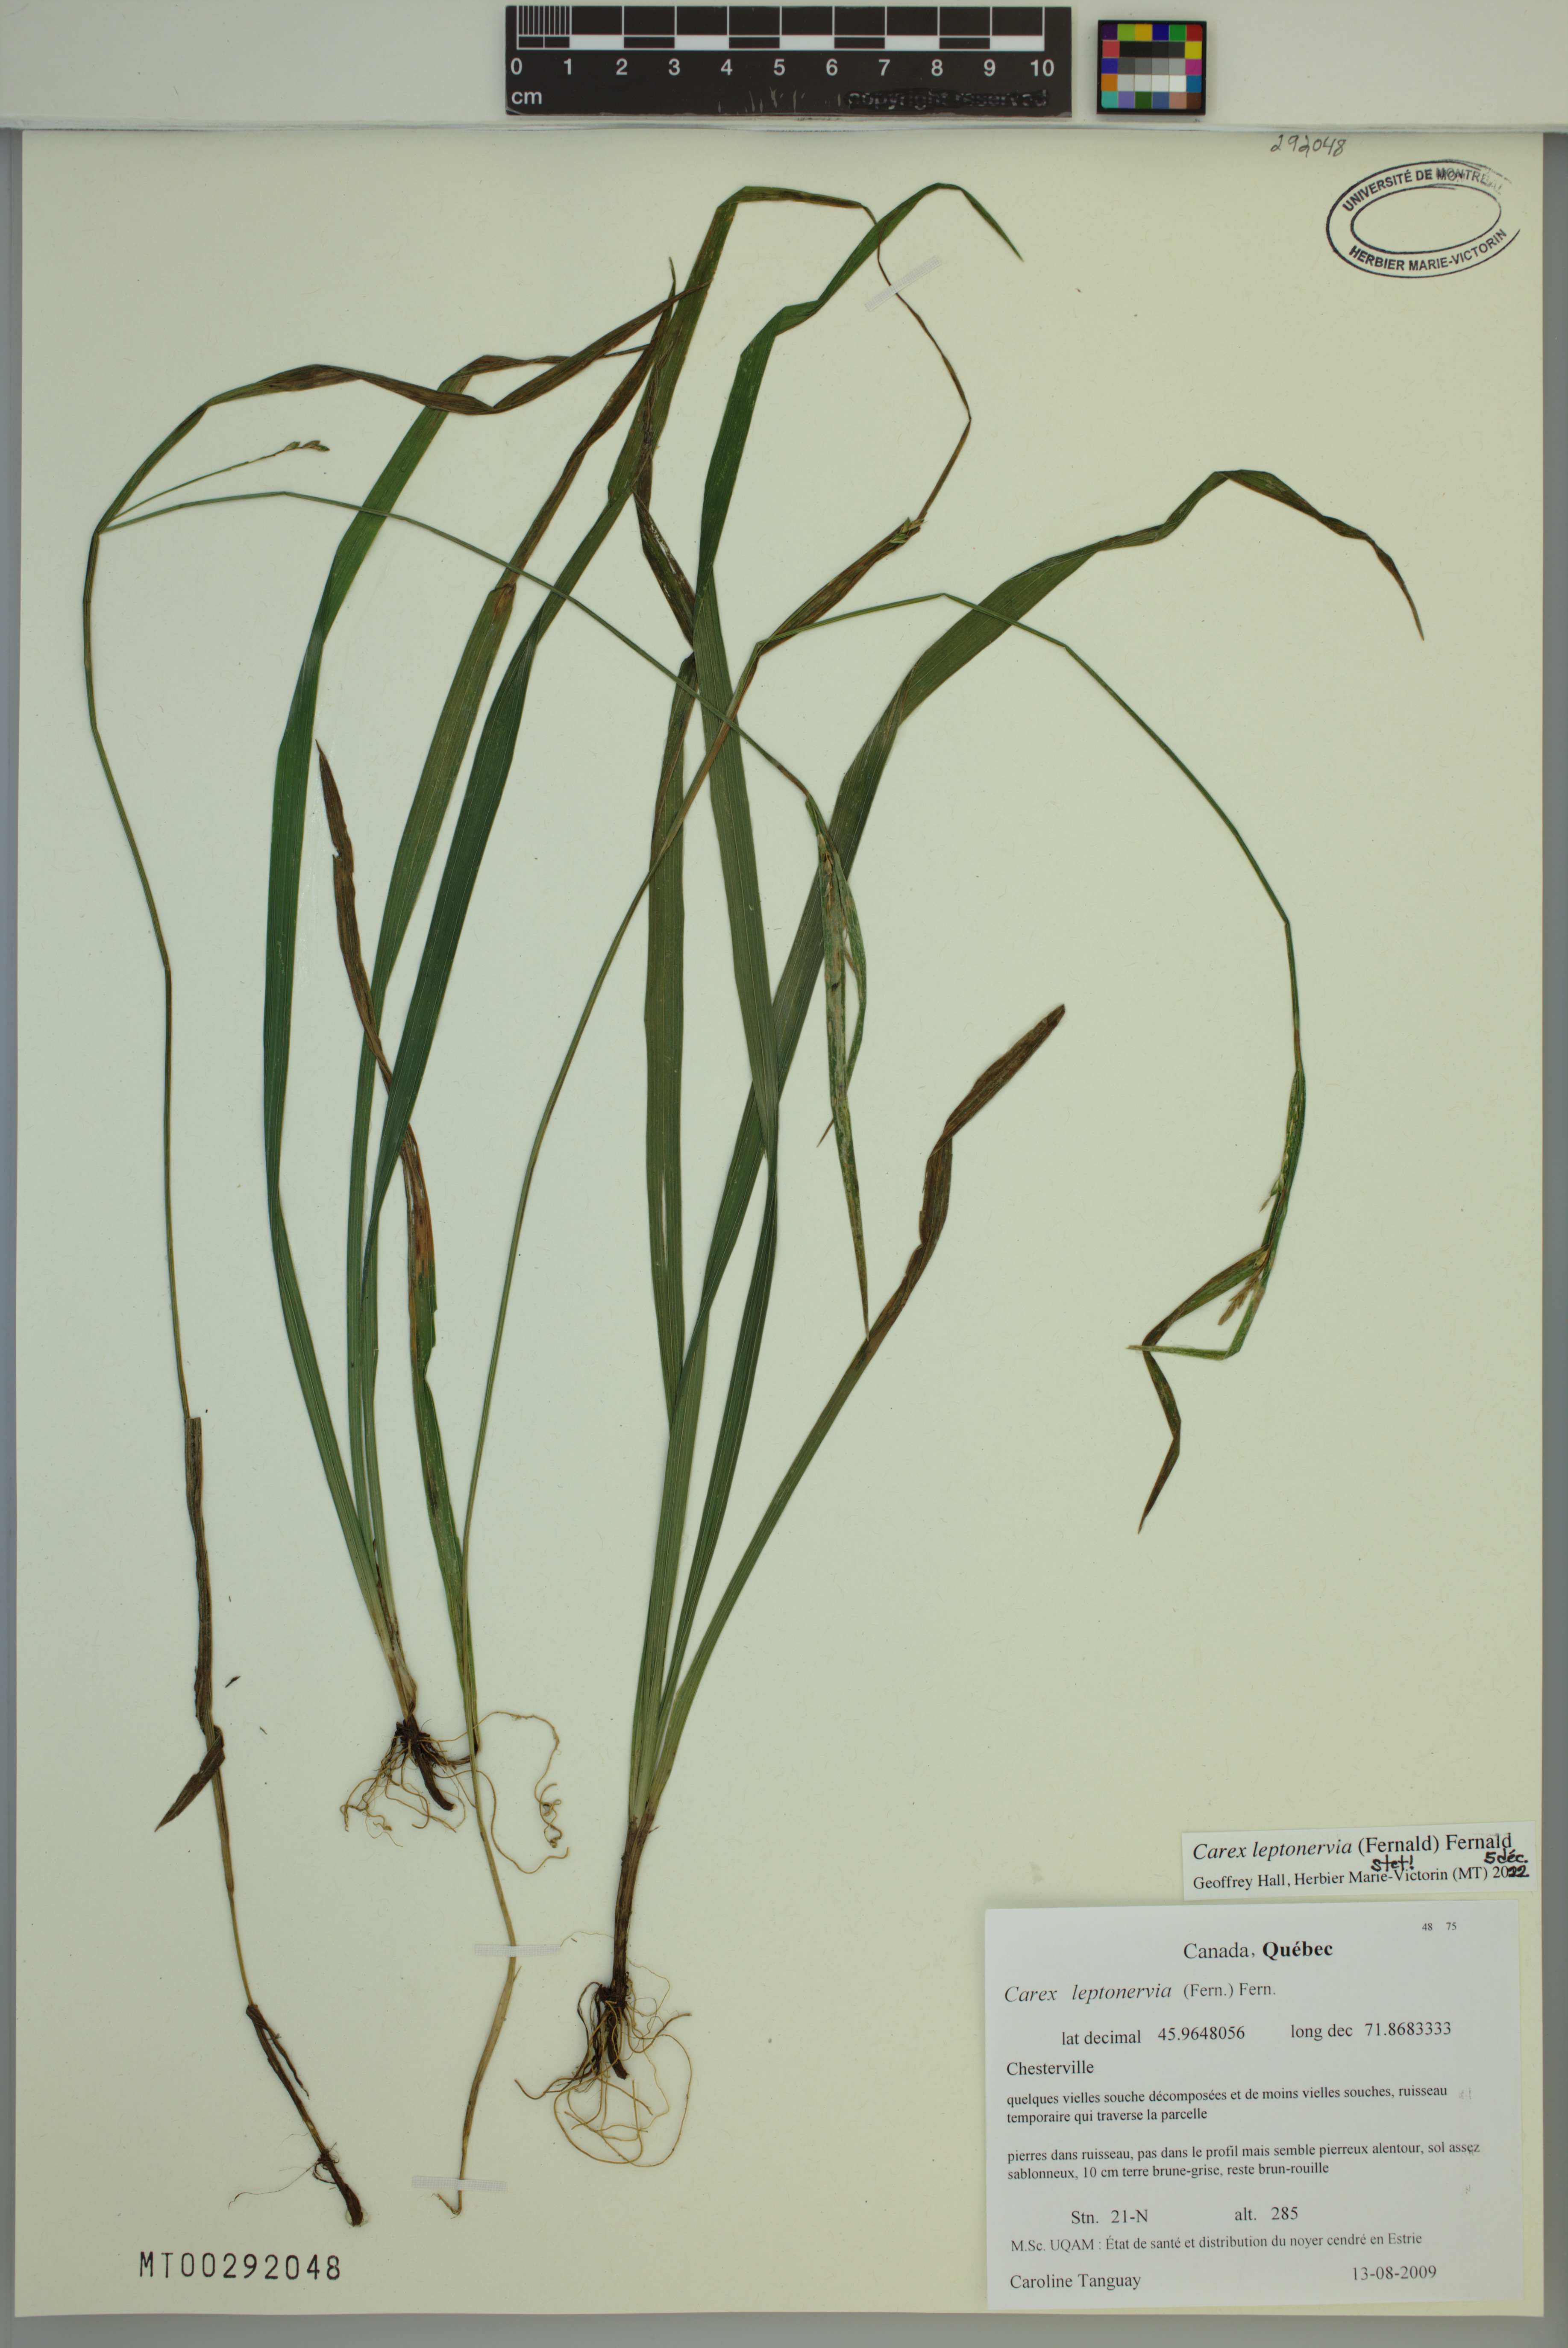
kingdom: Plantae
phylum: Tracheophyta
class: Liliopsida
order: Poales
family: Cyperaceae
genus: Carex
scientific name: Carex leptonervia
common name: Few-nerved wood sedge
